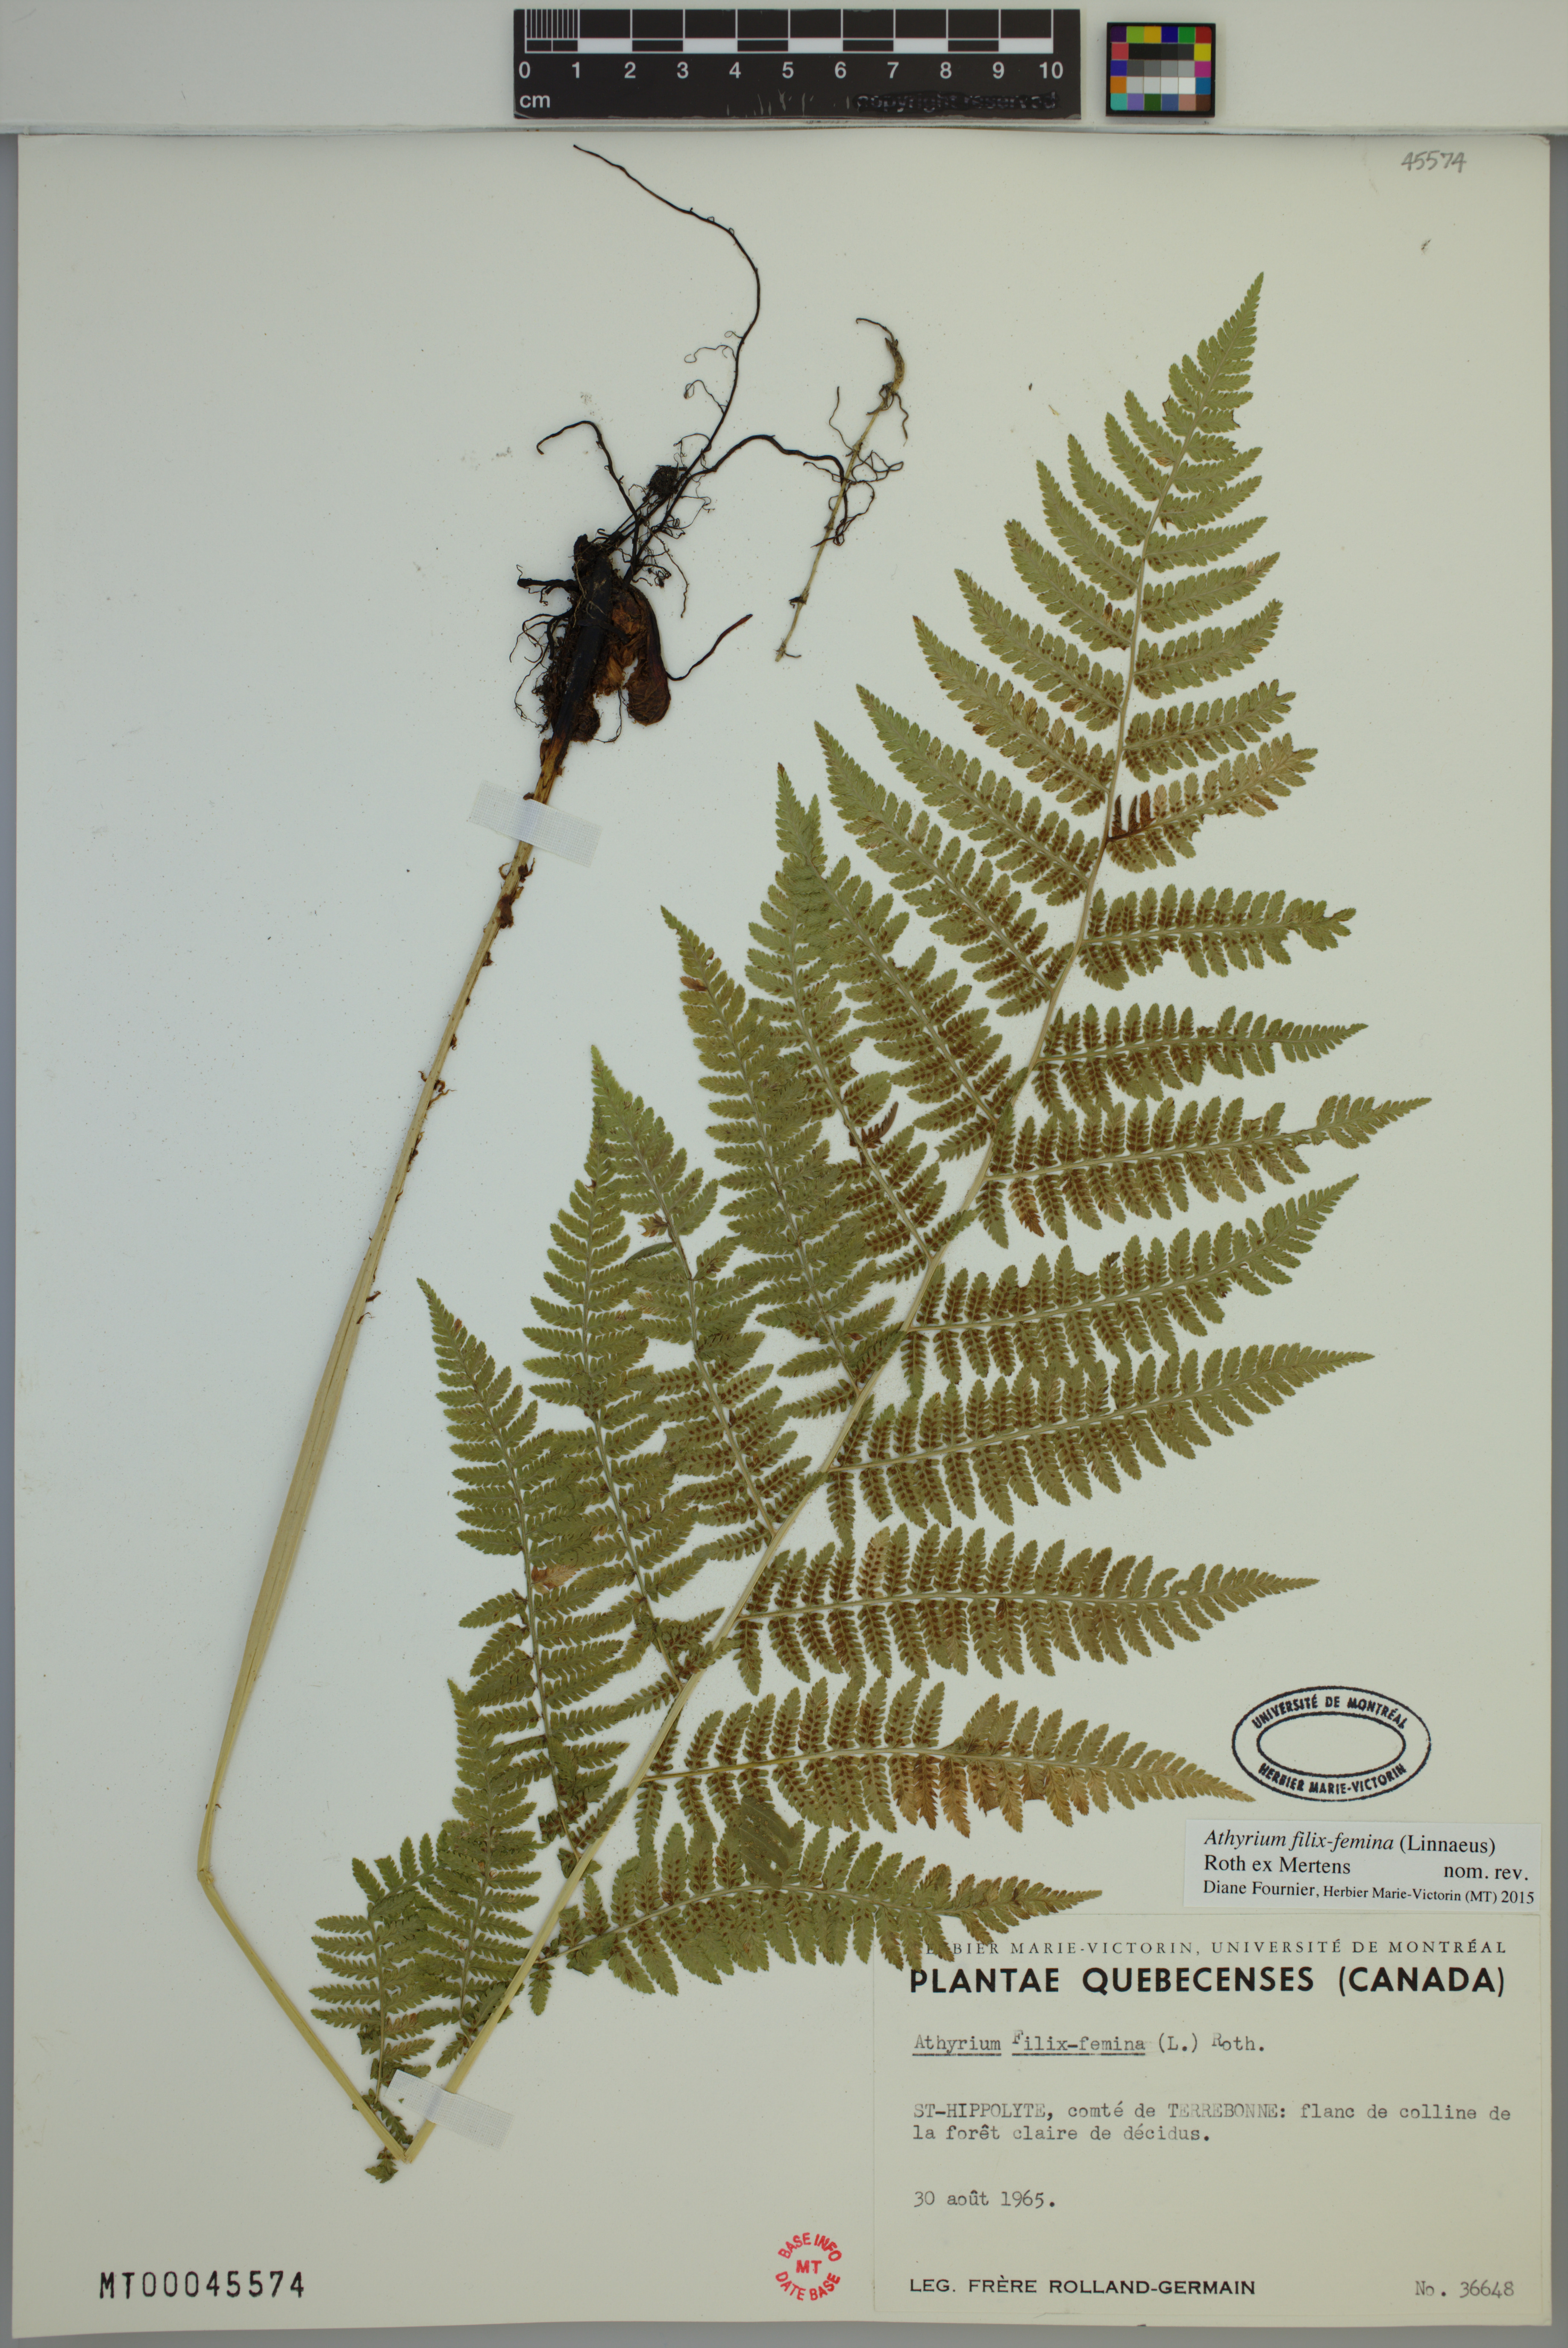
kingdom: Plantae
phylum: Tracheophyta
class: Polypodiopsida
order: Polypodiales
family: Athyriaceae
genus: Athyrium
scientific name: Athyrium filix-femina
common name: Lady fern
